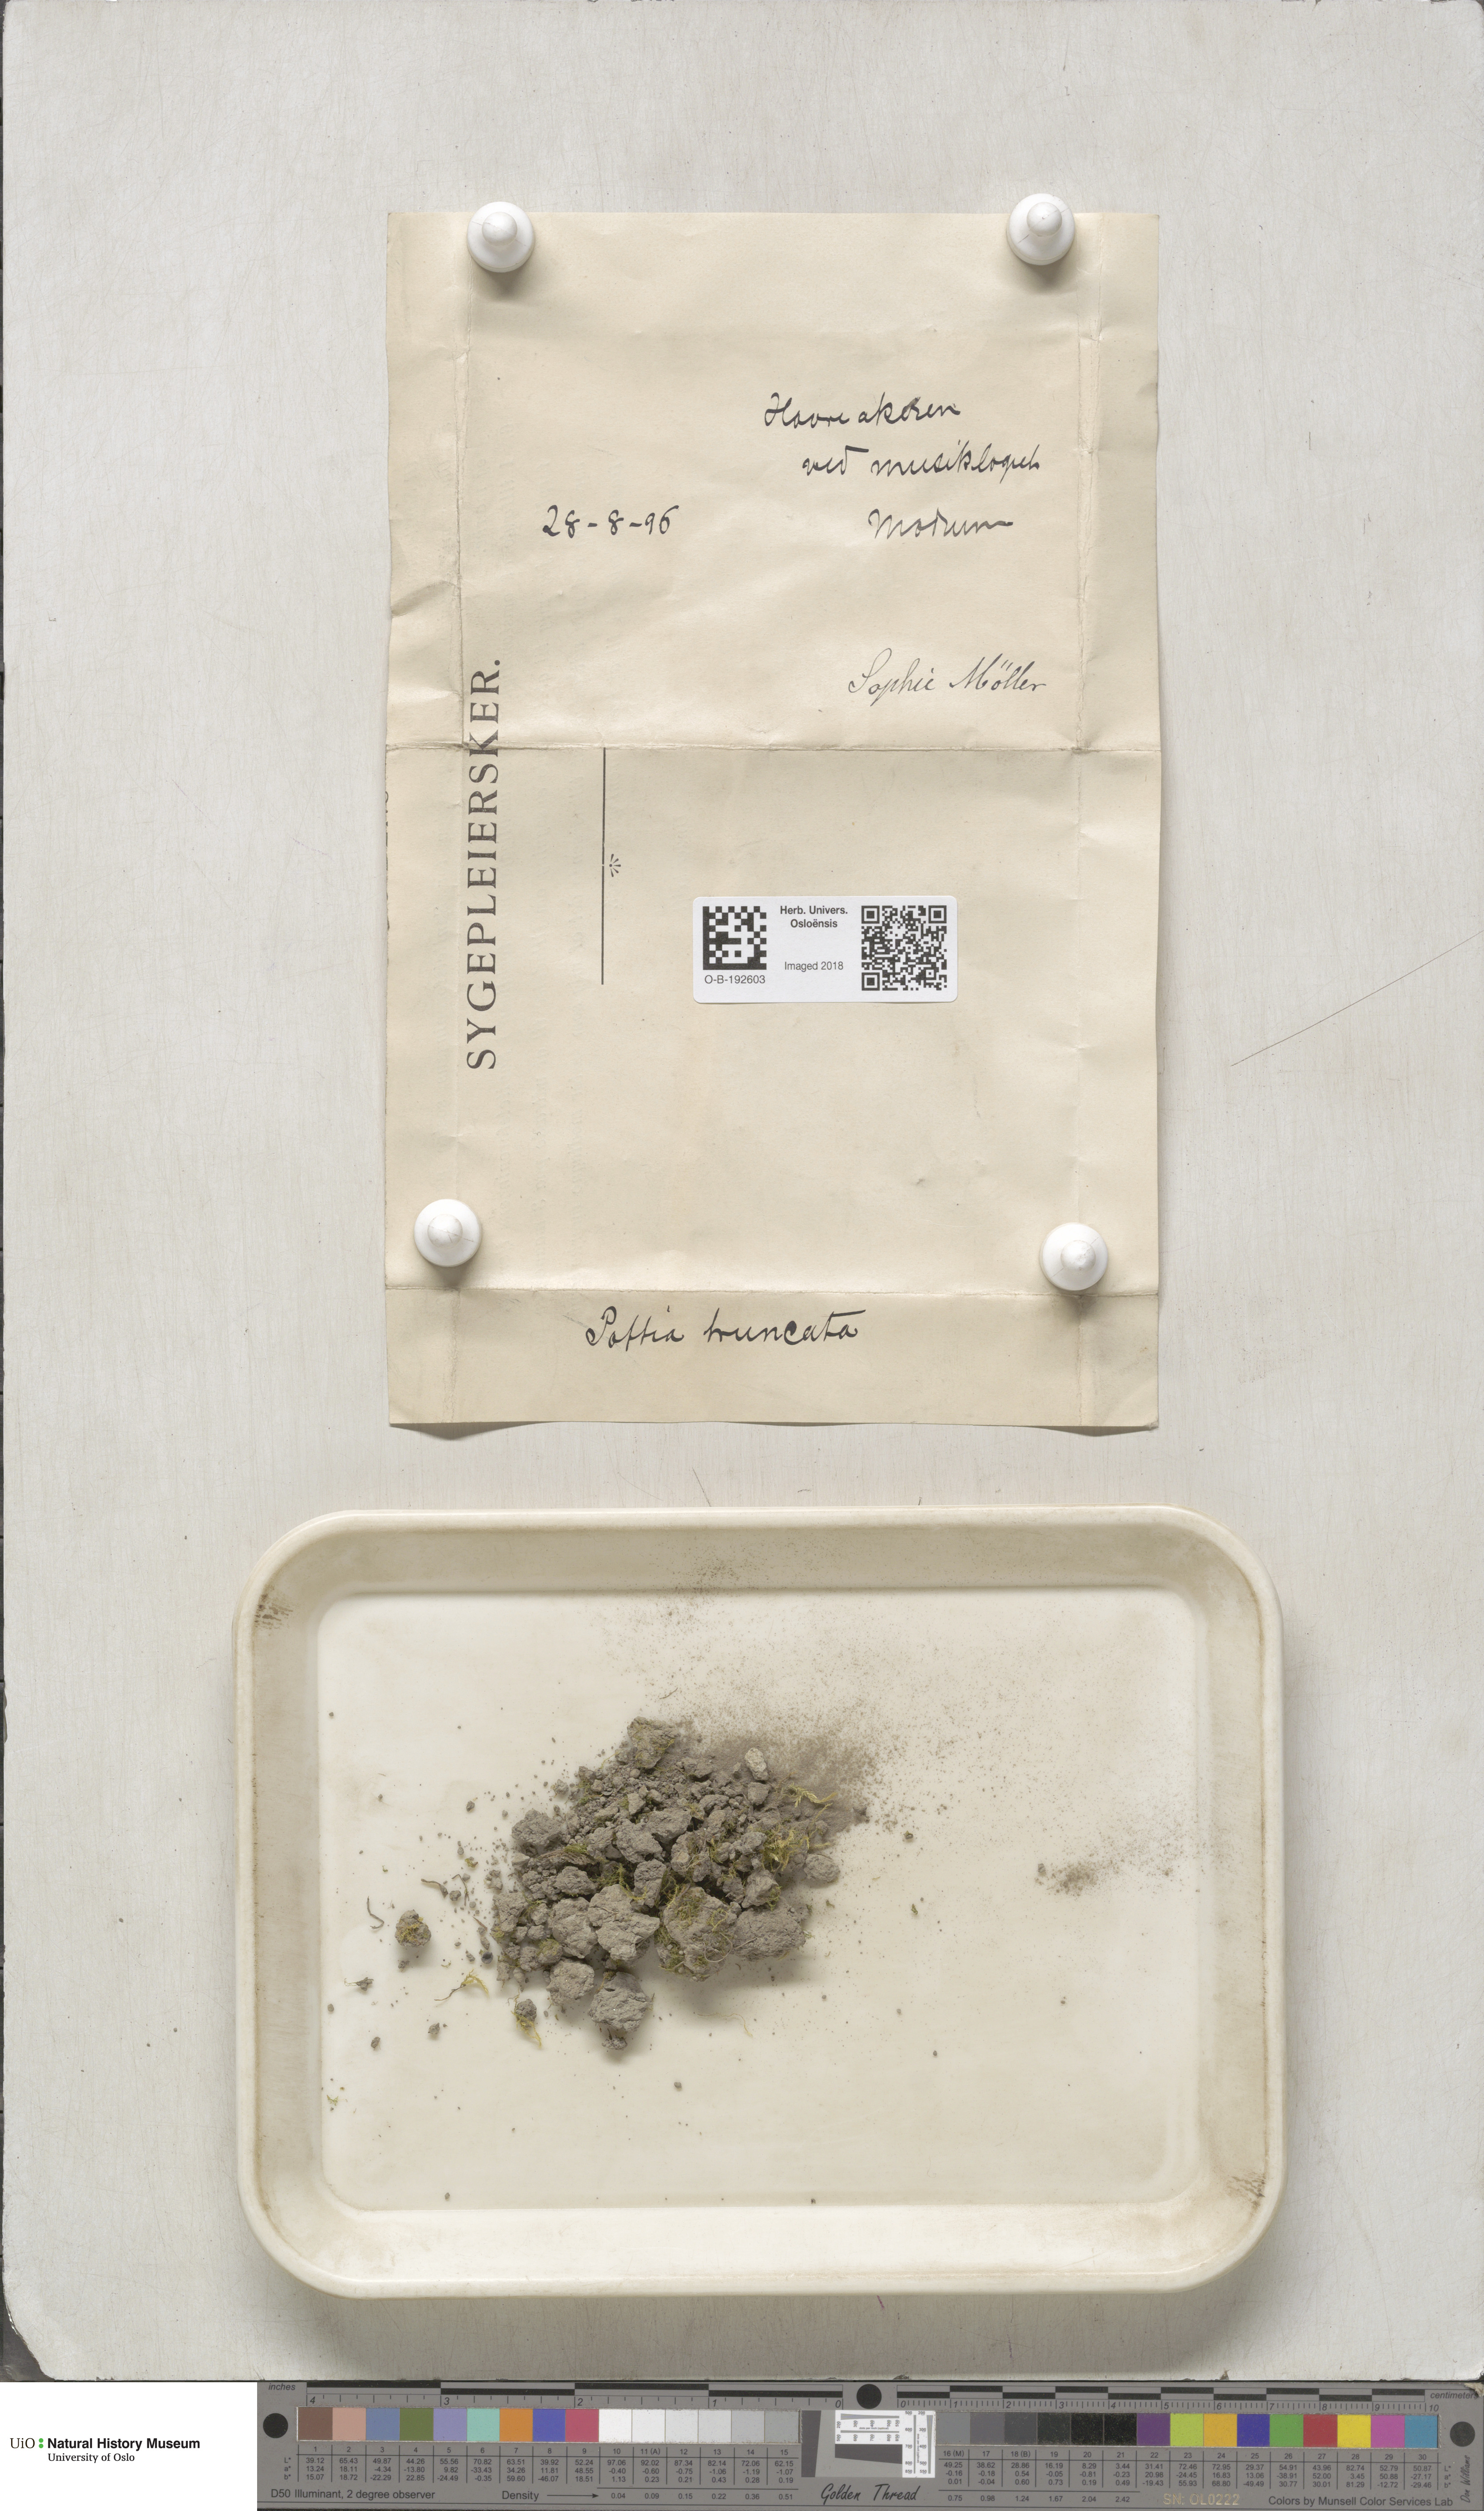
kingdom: Plantae
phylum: Bryophyta
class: Bryopsida
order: Pottiales
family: Pottiaceae
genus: Tortula
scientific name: Tortula truncata
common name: Truncated screw moss
